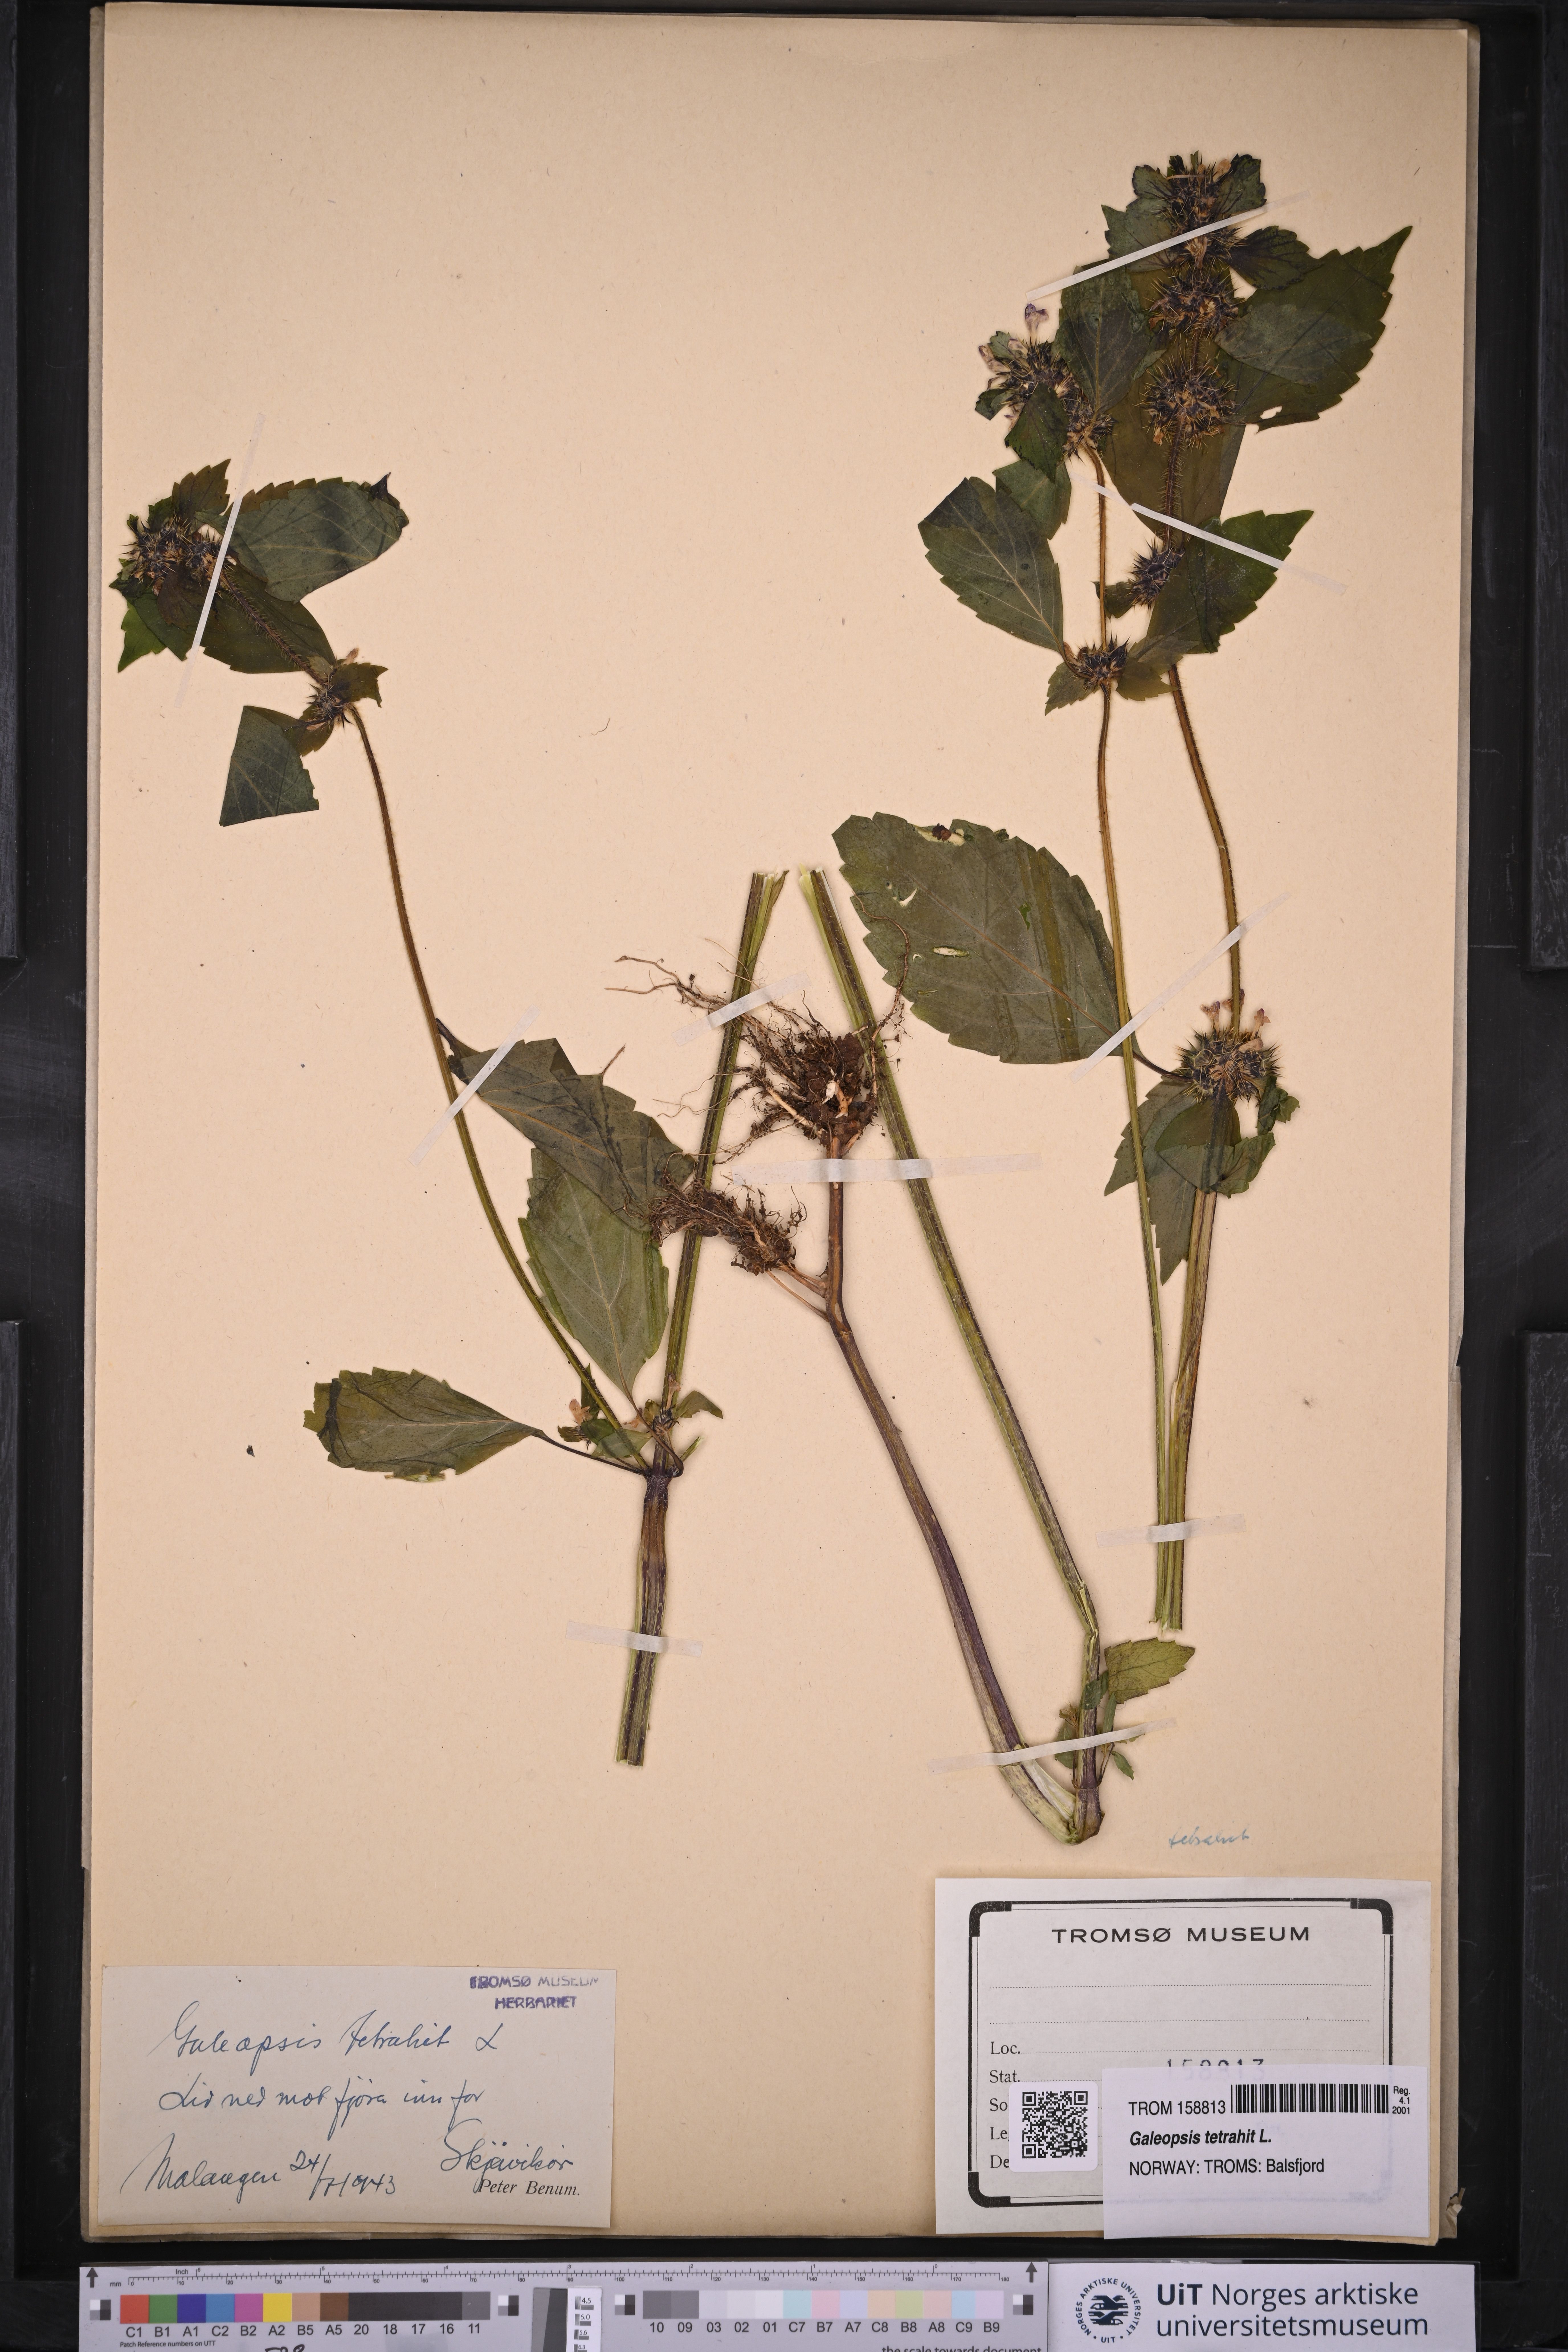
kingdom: Plantae
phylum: Tracheophyta
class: Magnoliopsida
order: Lamiales
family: Lamiaceae
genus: Galeopsis
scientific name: Galeopsis tetrahit
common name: Common hemp-nettle
